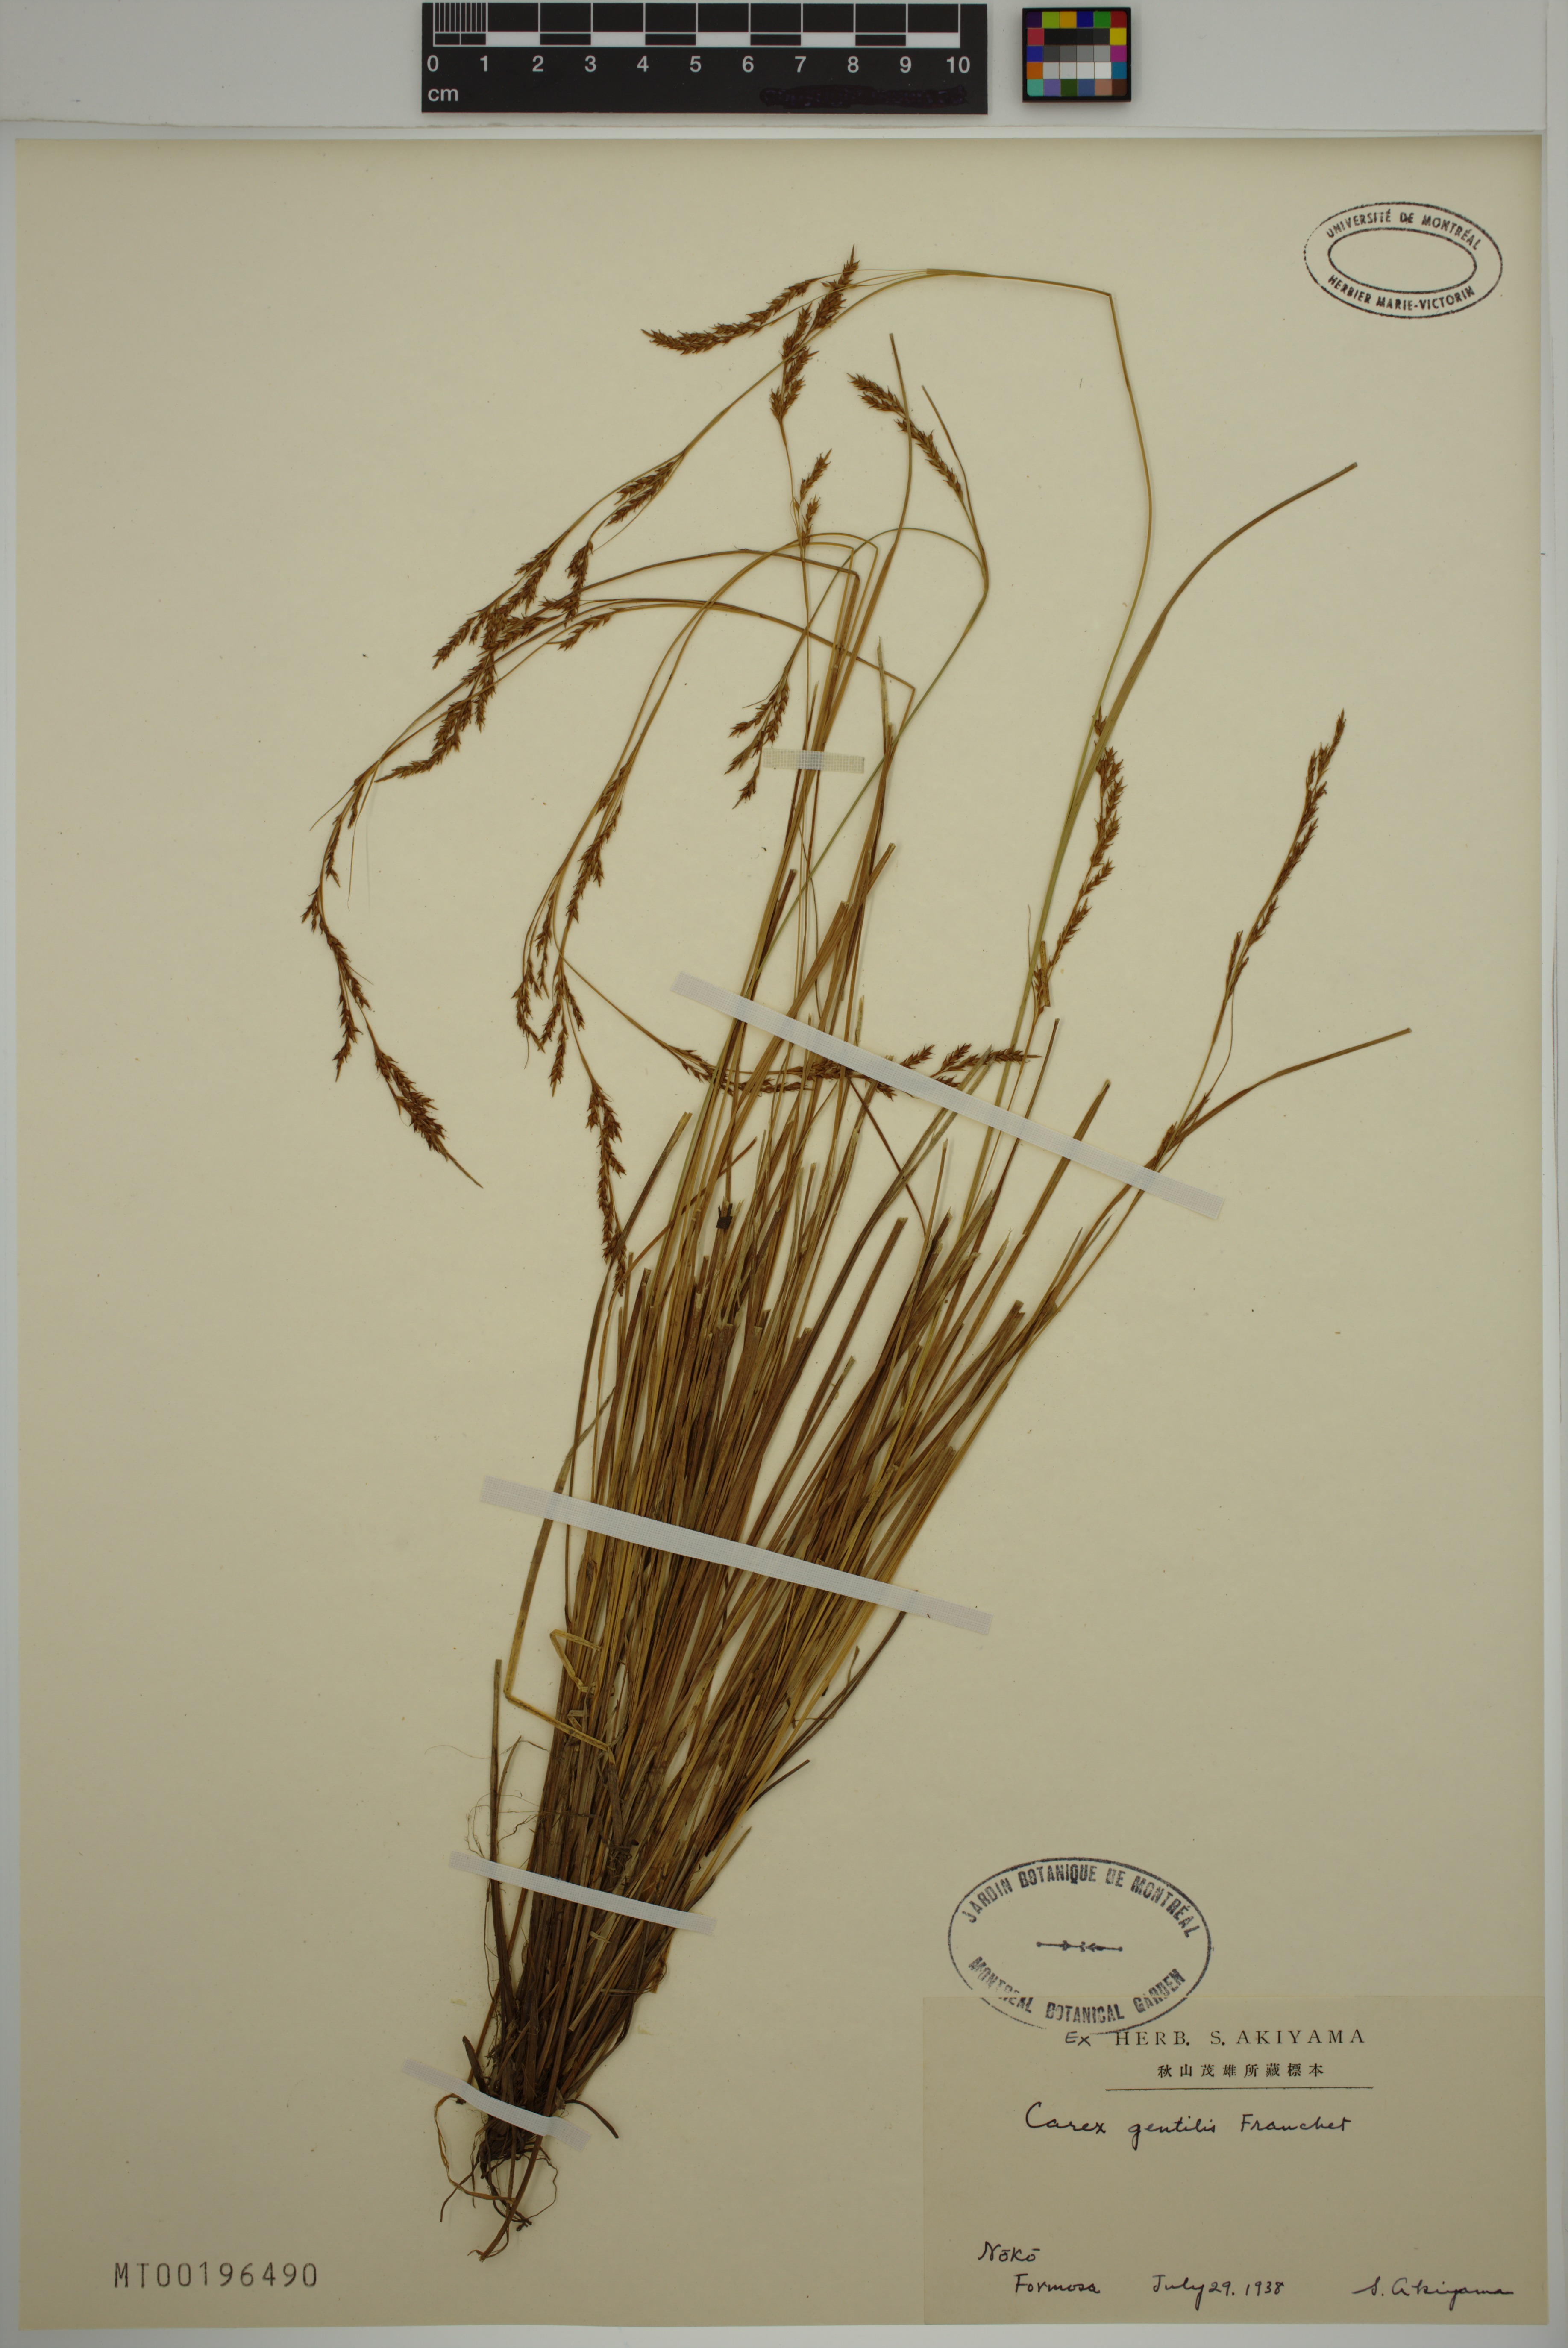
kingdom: Plantae
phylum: Tracheophyta
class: Liliopsida
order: Poales
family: Cyperaceae
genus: Carex
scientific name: Carex gentilis
